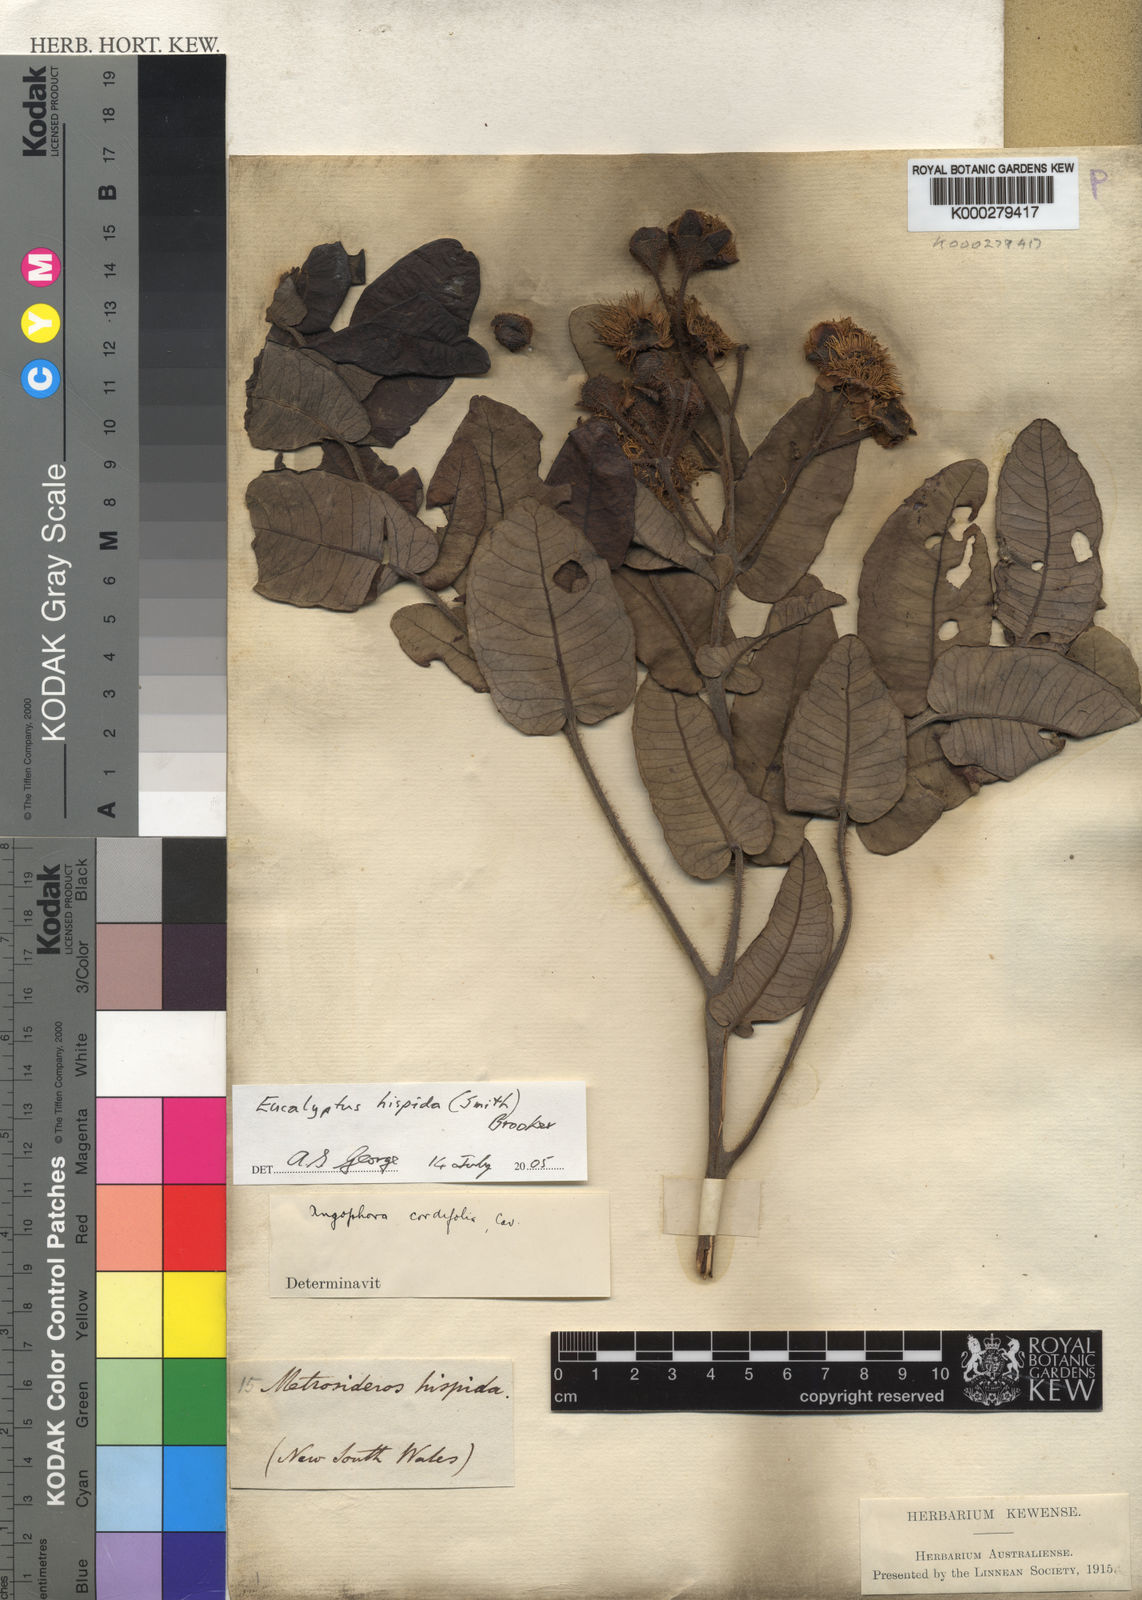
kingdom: Plantae
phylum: Tracheophyta
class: Magnoliopsida
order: Myrtales
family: Myrtaceae
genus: Angophora
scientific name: Angophora hispida
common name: Dwarf-apple
